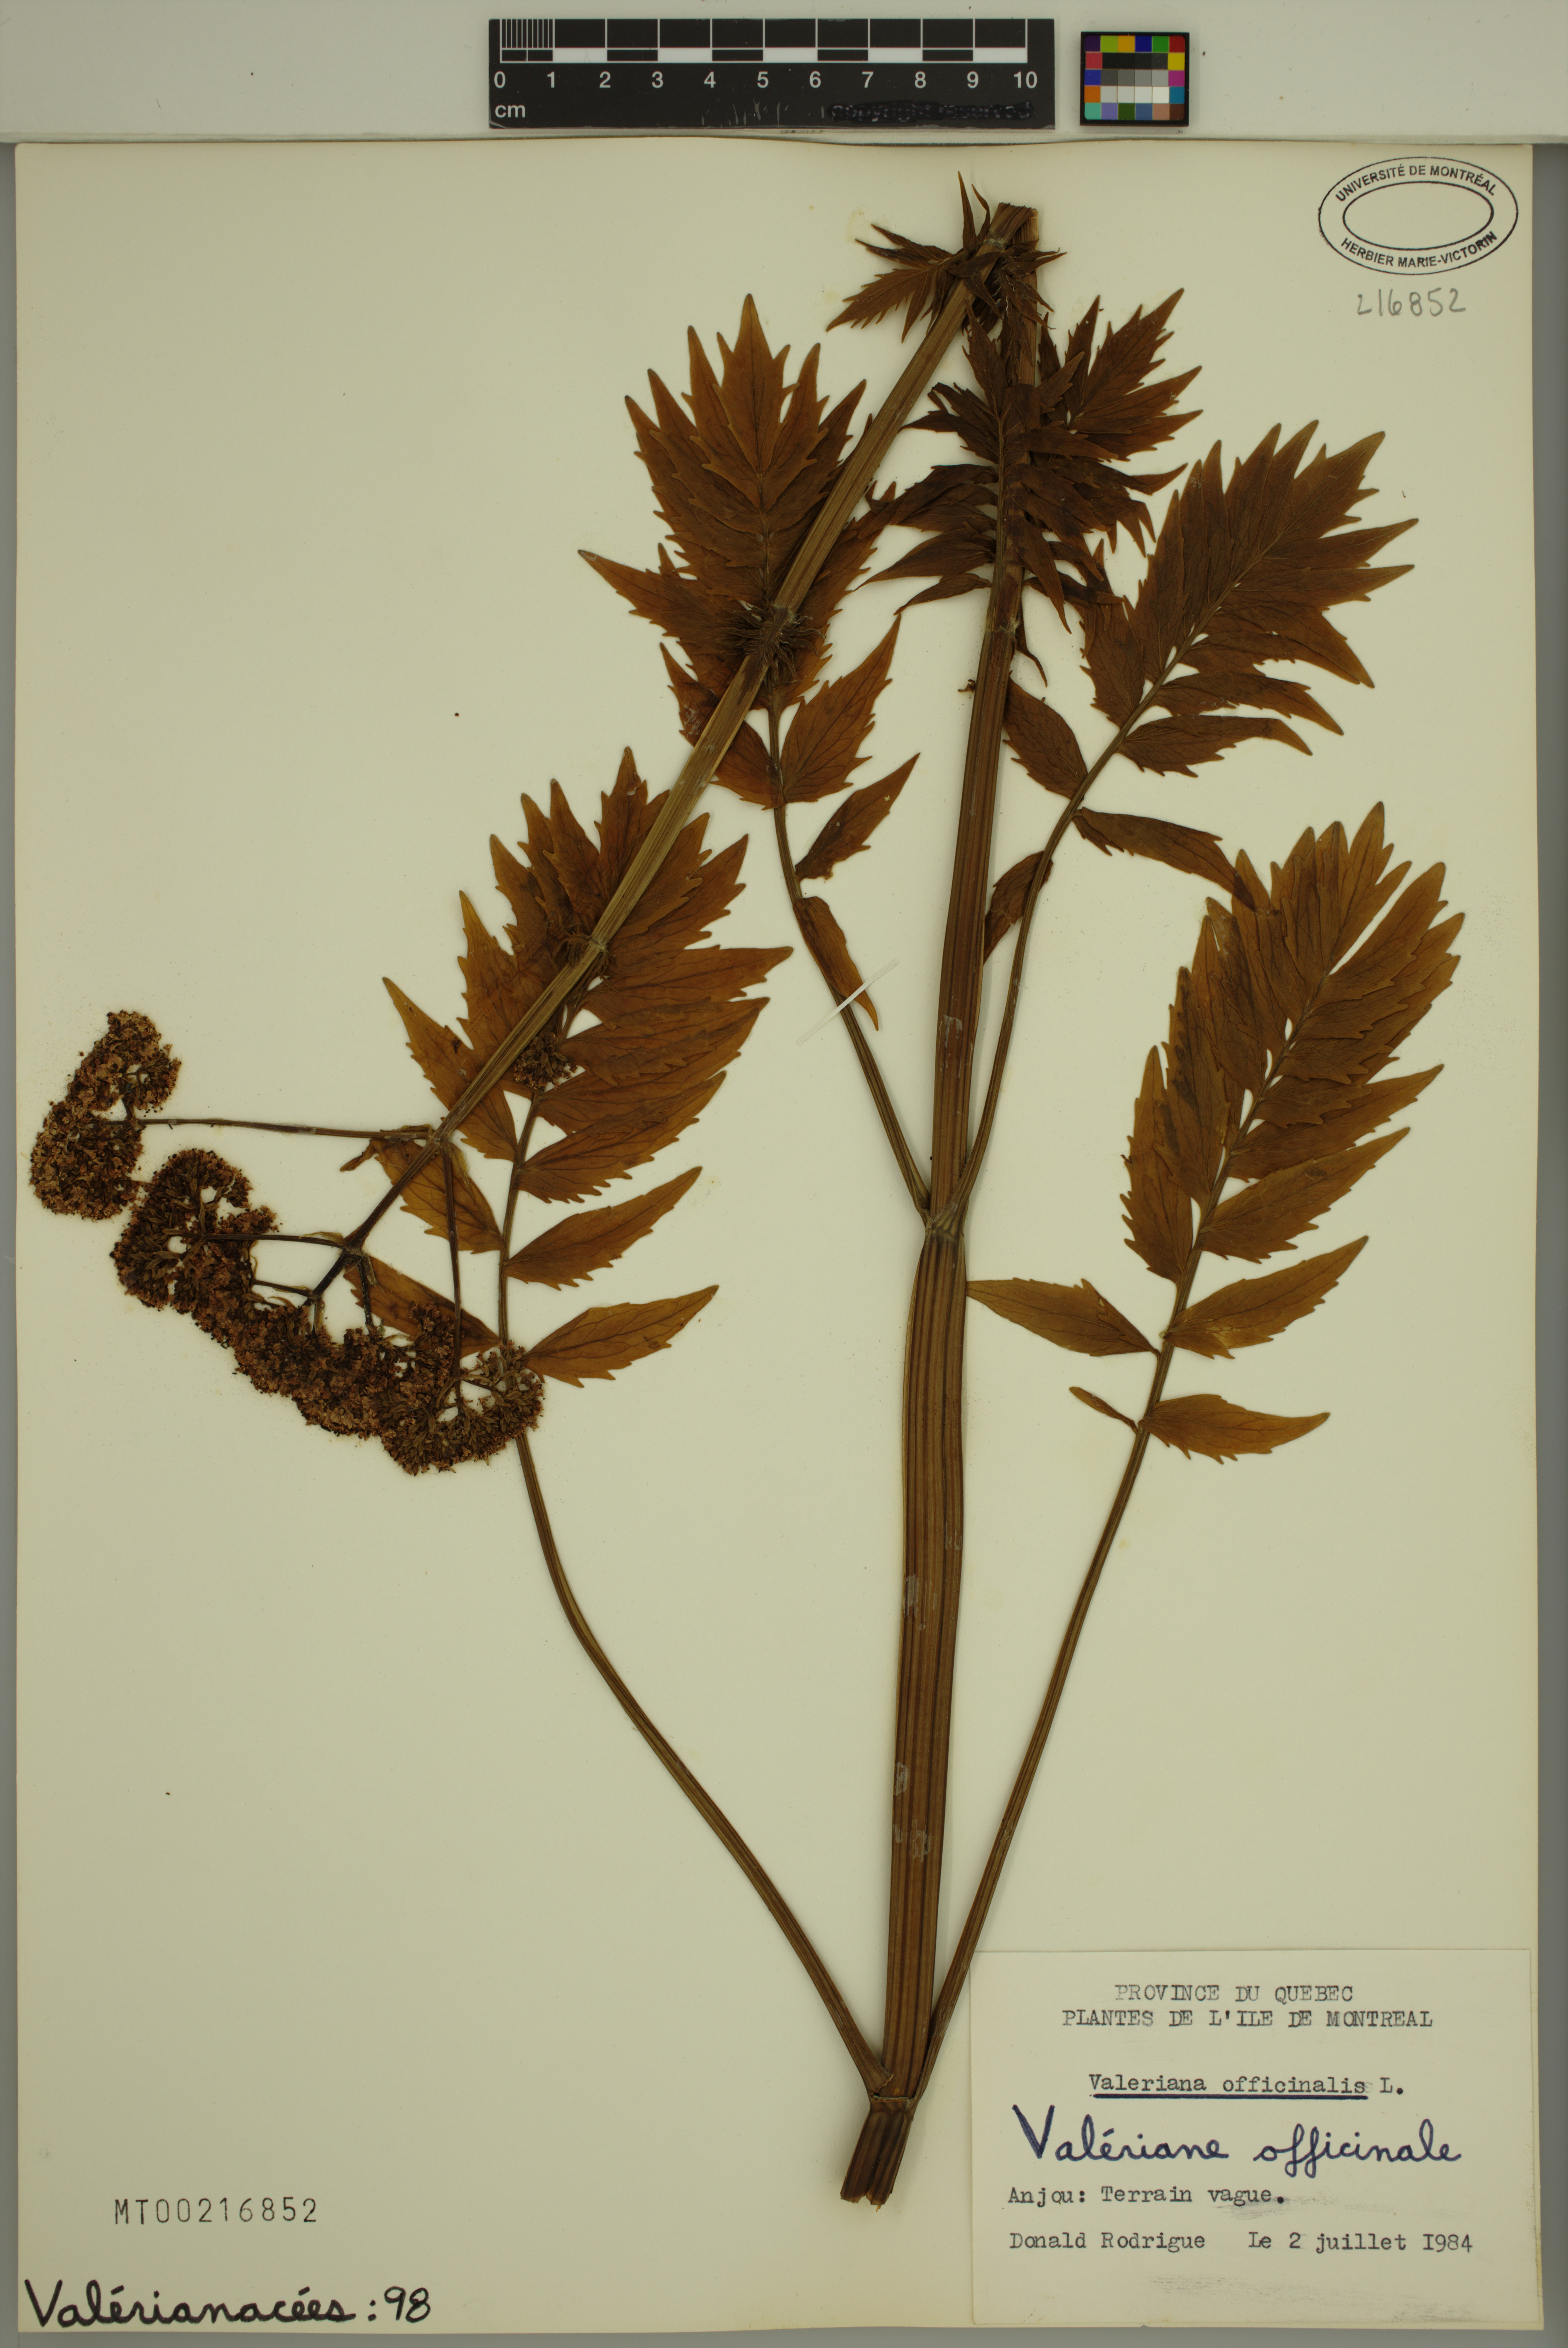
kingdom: Plantae
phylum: Tracheophyta
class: Magnoliopsida
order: Dipsacales
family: Caprifoliaceae
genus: Valeriana
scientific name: Valeriana officinalis
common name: Common valerian
